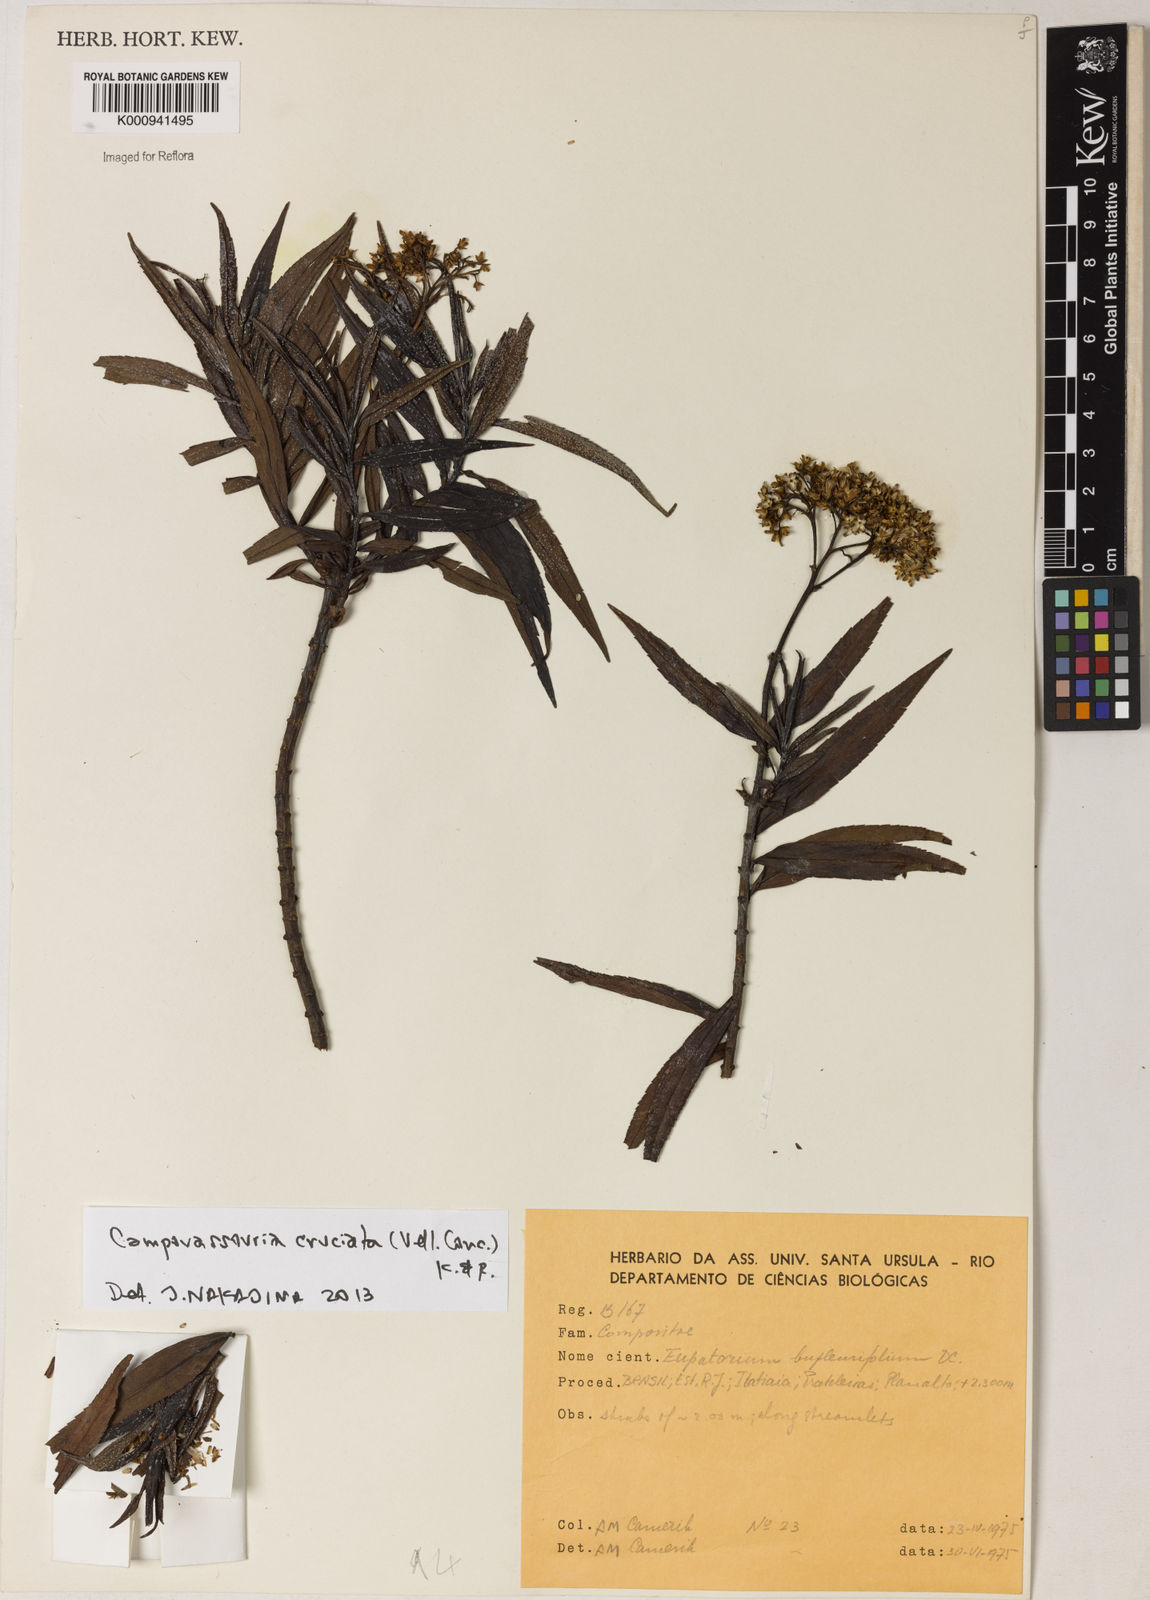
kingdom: Plantae
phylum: Tracheophyta
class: Magnoliopsida
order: Asterales
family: Asteraceae
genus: Campovassouria
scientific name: Campovassouria cruciata
